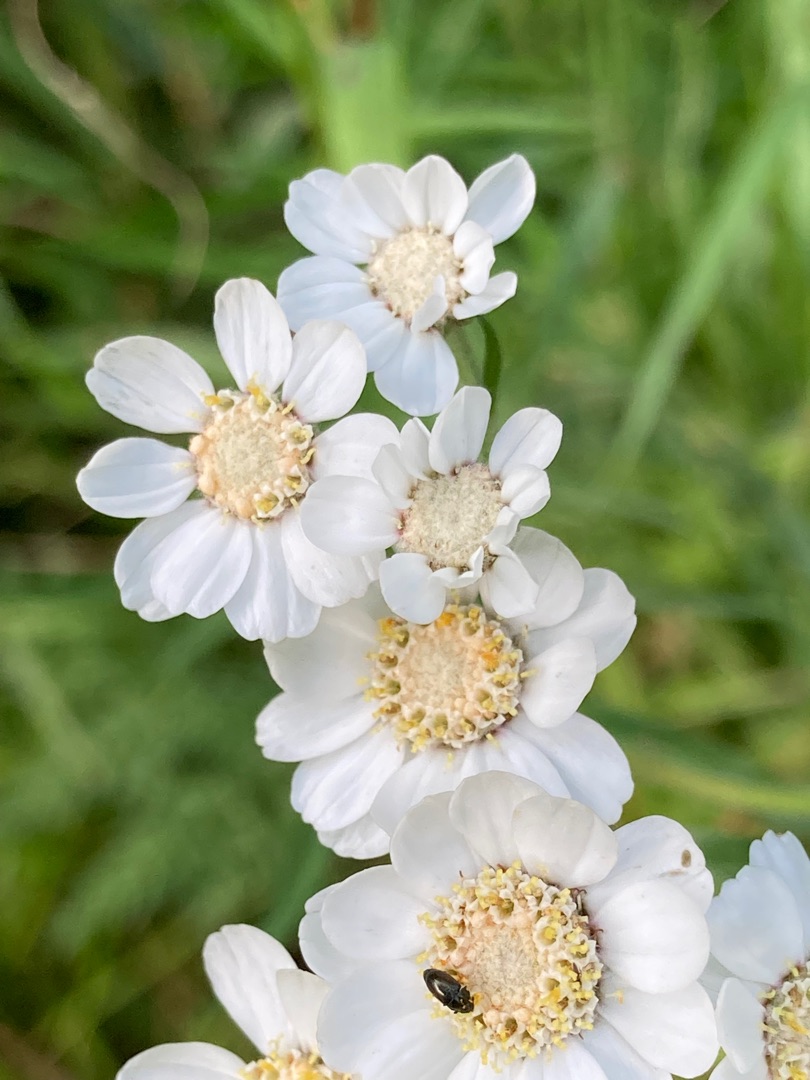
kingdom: Plantae
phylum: Tracheophyta
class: Magnoliopsida
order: Asterales
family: Asteraceae
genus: Achillea
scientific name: Achillea ptarmica
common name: Nyse-røllike
